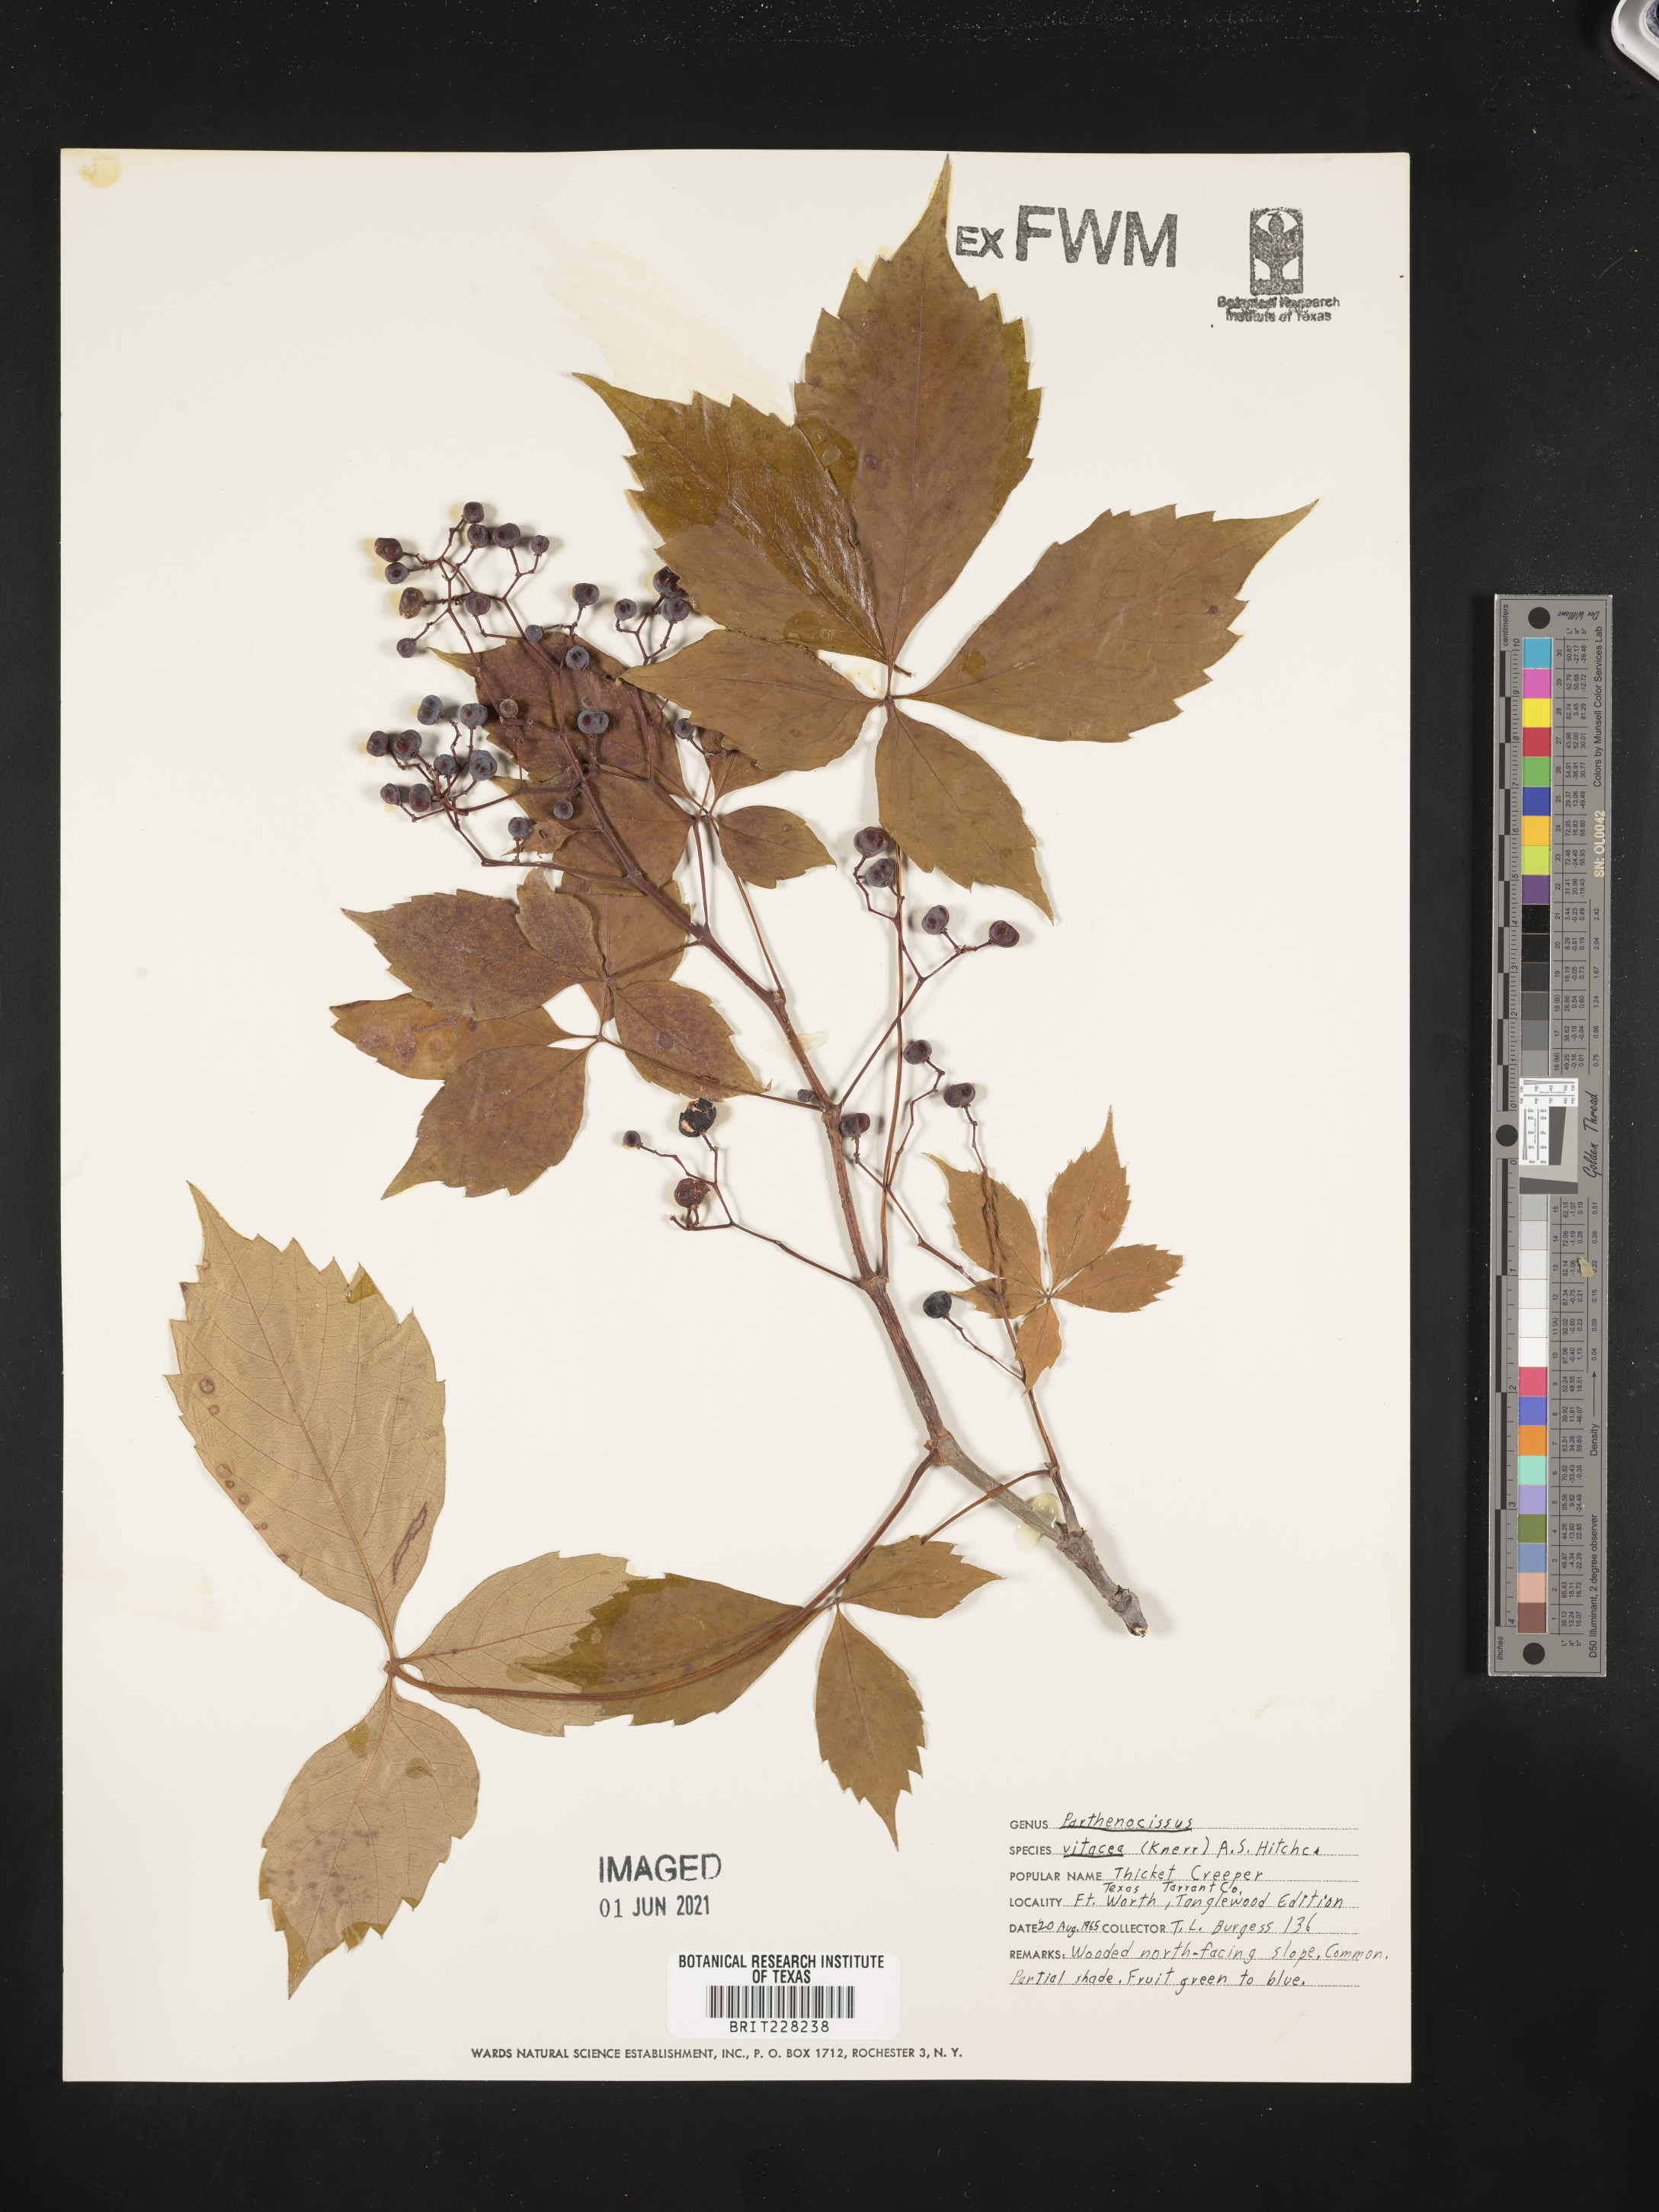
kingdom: Plantae
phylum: Tracheophyta
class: Magnoliopsida
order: Vitales
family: Vitaceae
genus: Parthenocissus
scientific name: Parthenocissus inserta
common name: False virginia-creeper
